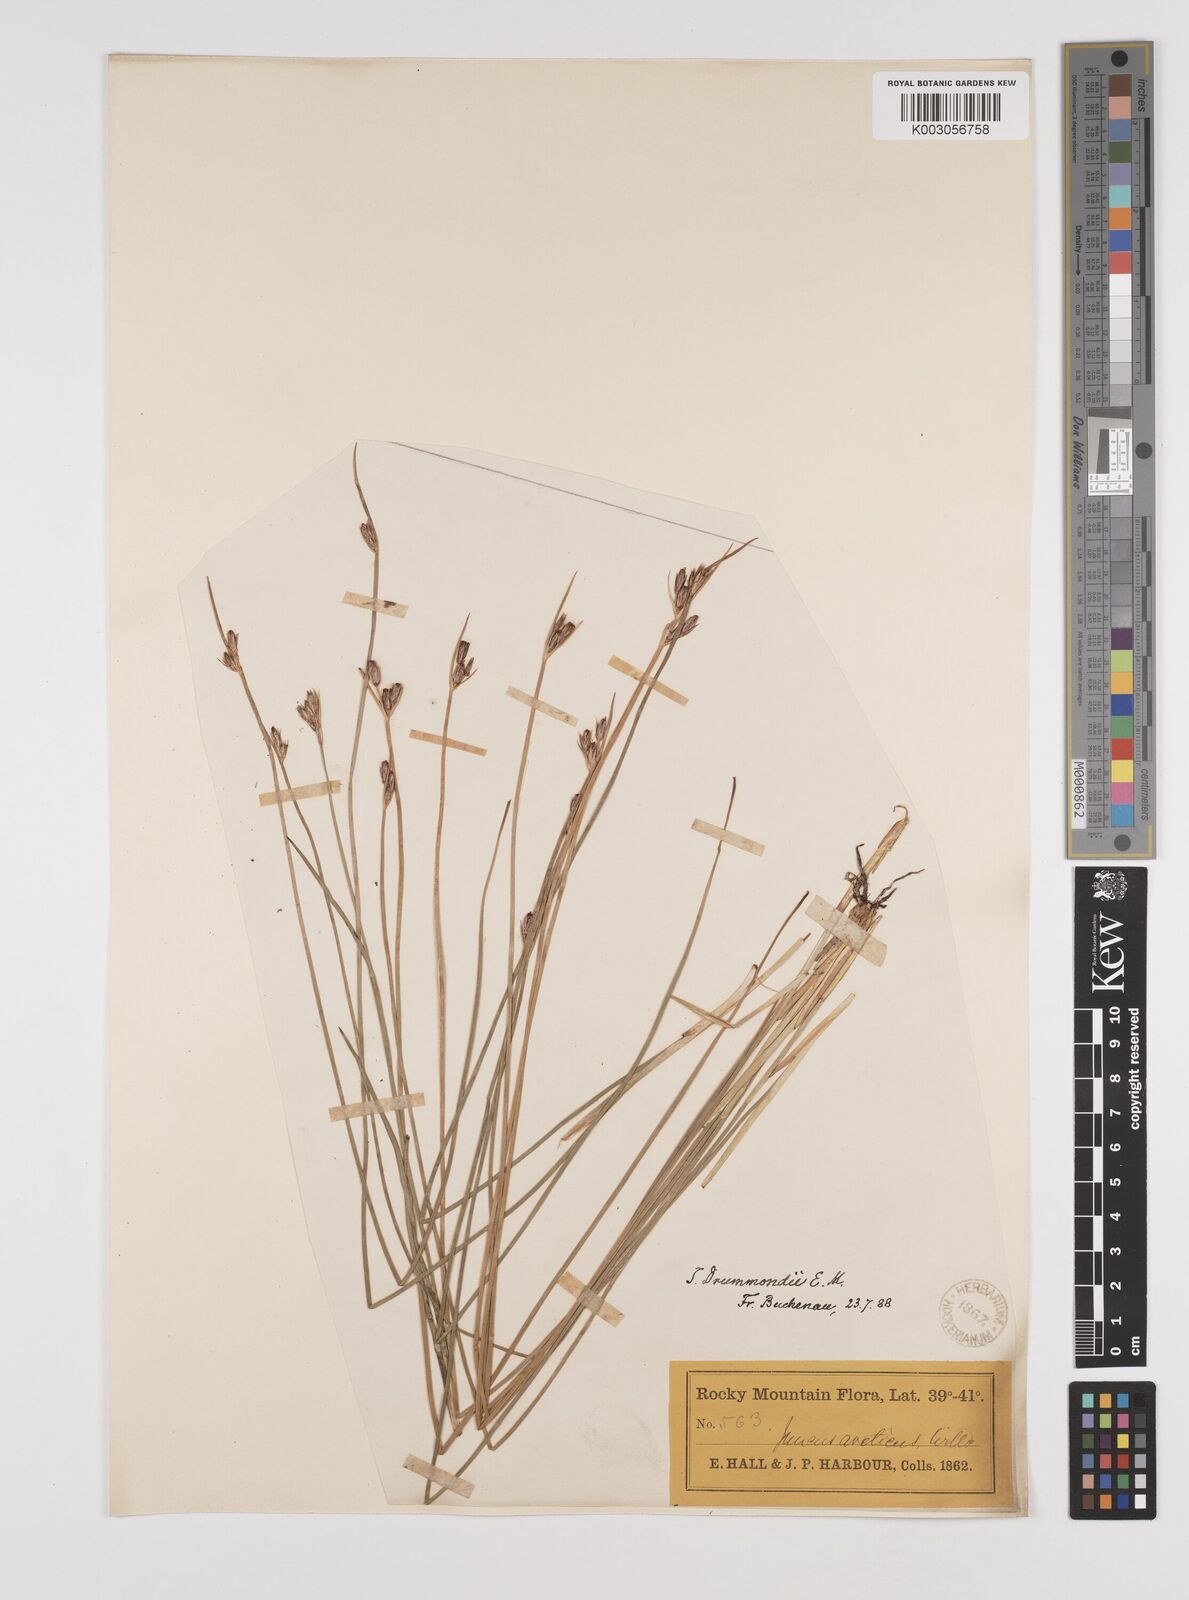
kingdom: Plantae
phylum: Tracheophyta
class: Liliopsida
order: Poales
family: Juncaceae
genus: Juncus
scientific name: Juncus drummondii
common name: Drummond's rush
